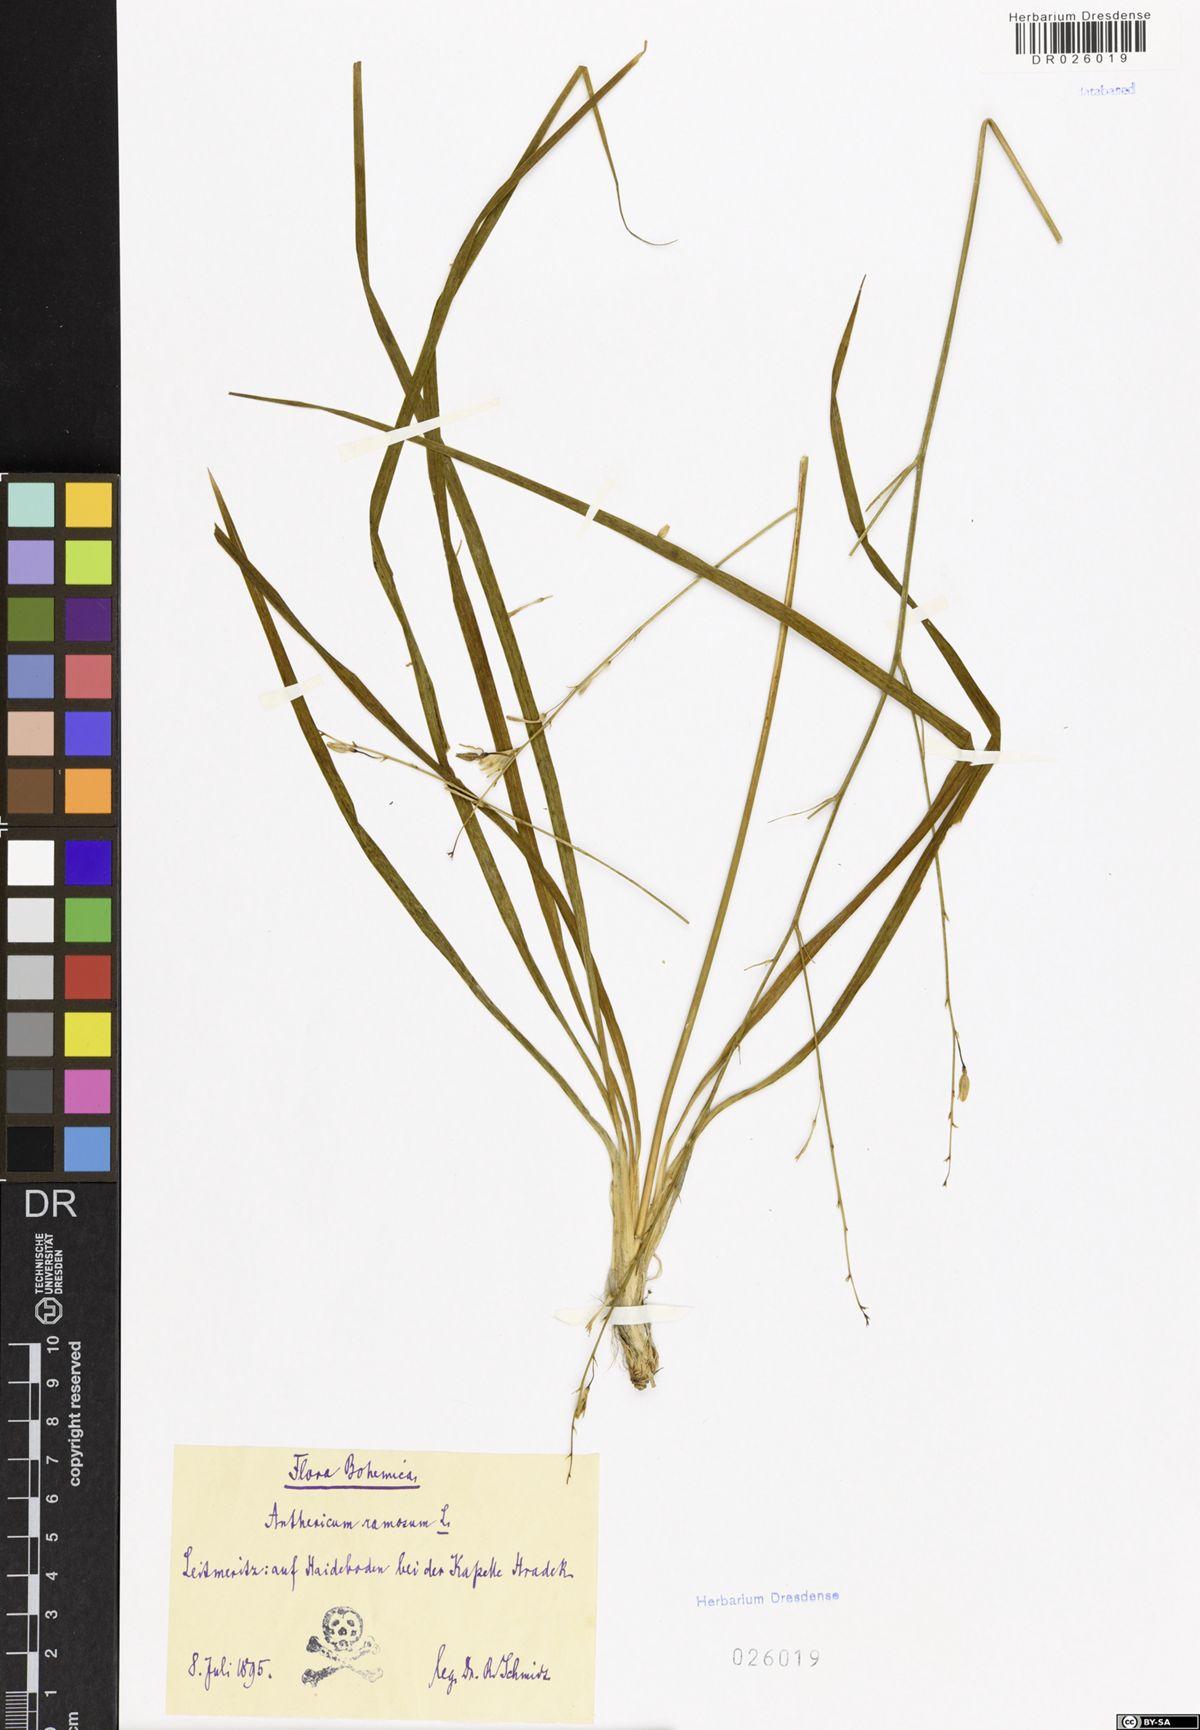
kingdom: Plantae
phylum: Tracheophyta
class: Liliopsida
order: Asparagales
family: Asparagaceae
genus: Anthericum
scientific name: Anthericum ramosum
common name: Branched st. bernard's-lily
